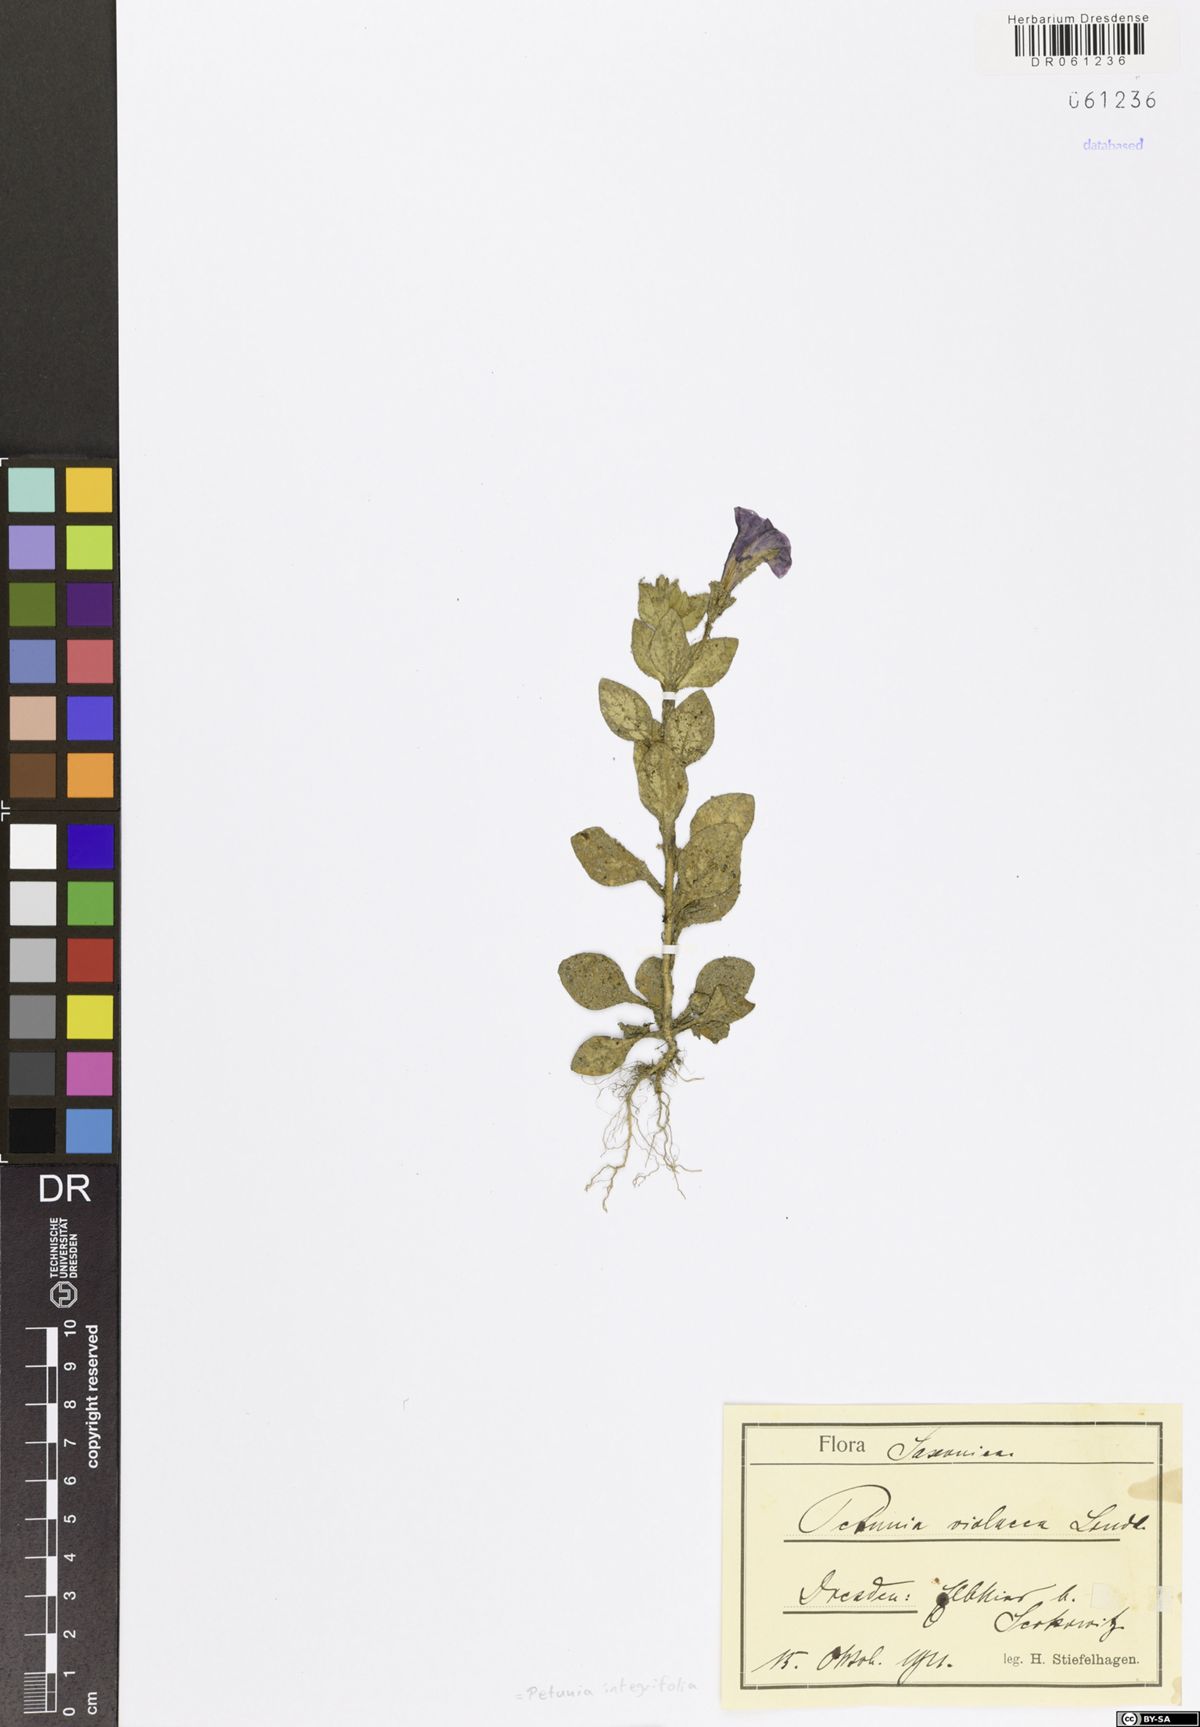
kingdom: Plantae
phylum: Tracheophyta
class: Magnoliopsida
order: Solanales
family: Solanaceae
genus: Petunia
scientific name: Petunia integrifolia
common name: Violet-flower petunia
